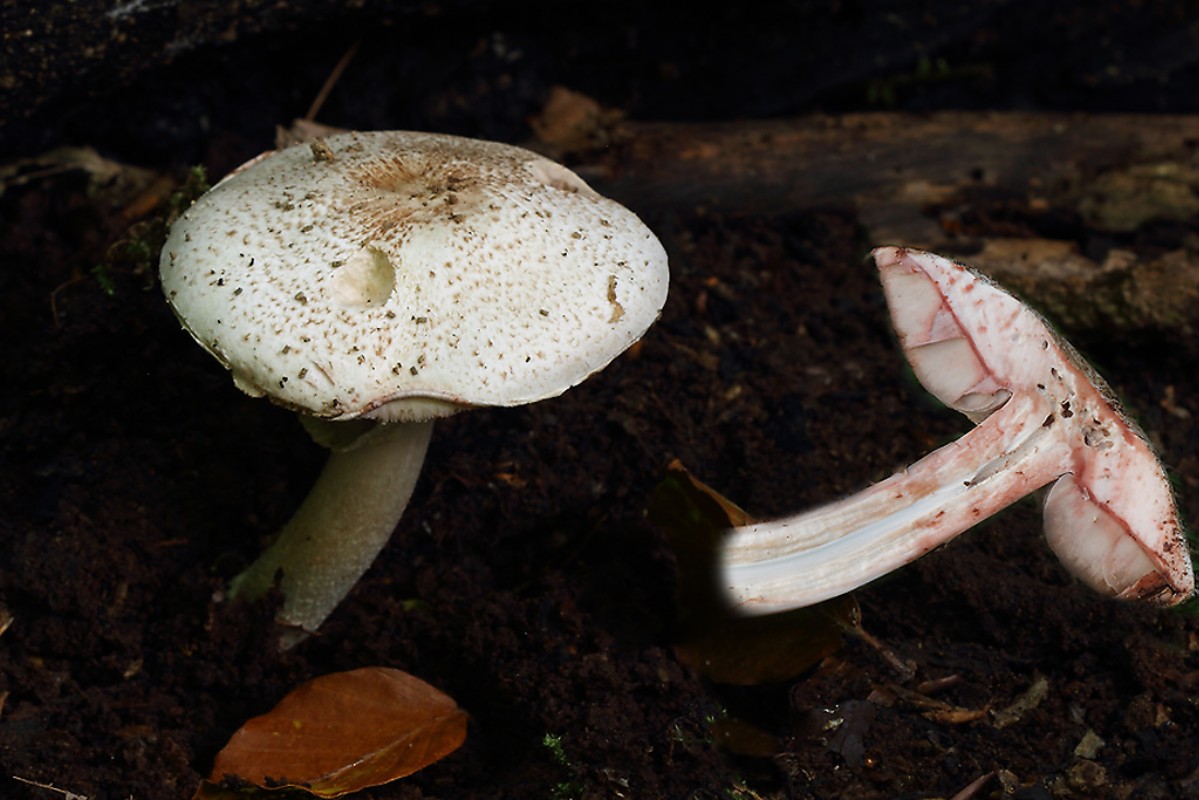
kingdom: Fungi
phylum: Basidiomycota
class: Agaricomycetes
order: Agaricales
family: Agaricaceae
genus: Agaricus
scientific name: Agaricus sylvaticus
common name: lille blod-champignon
